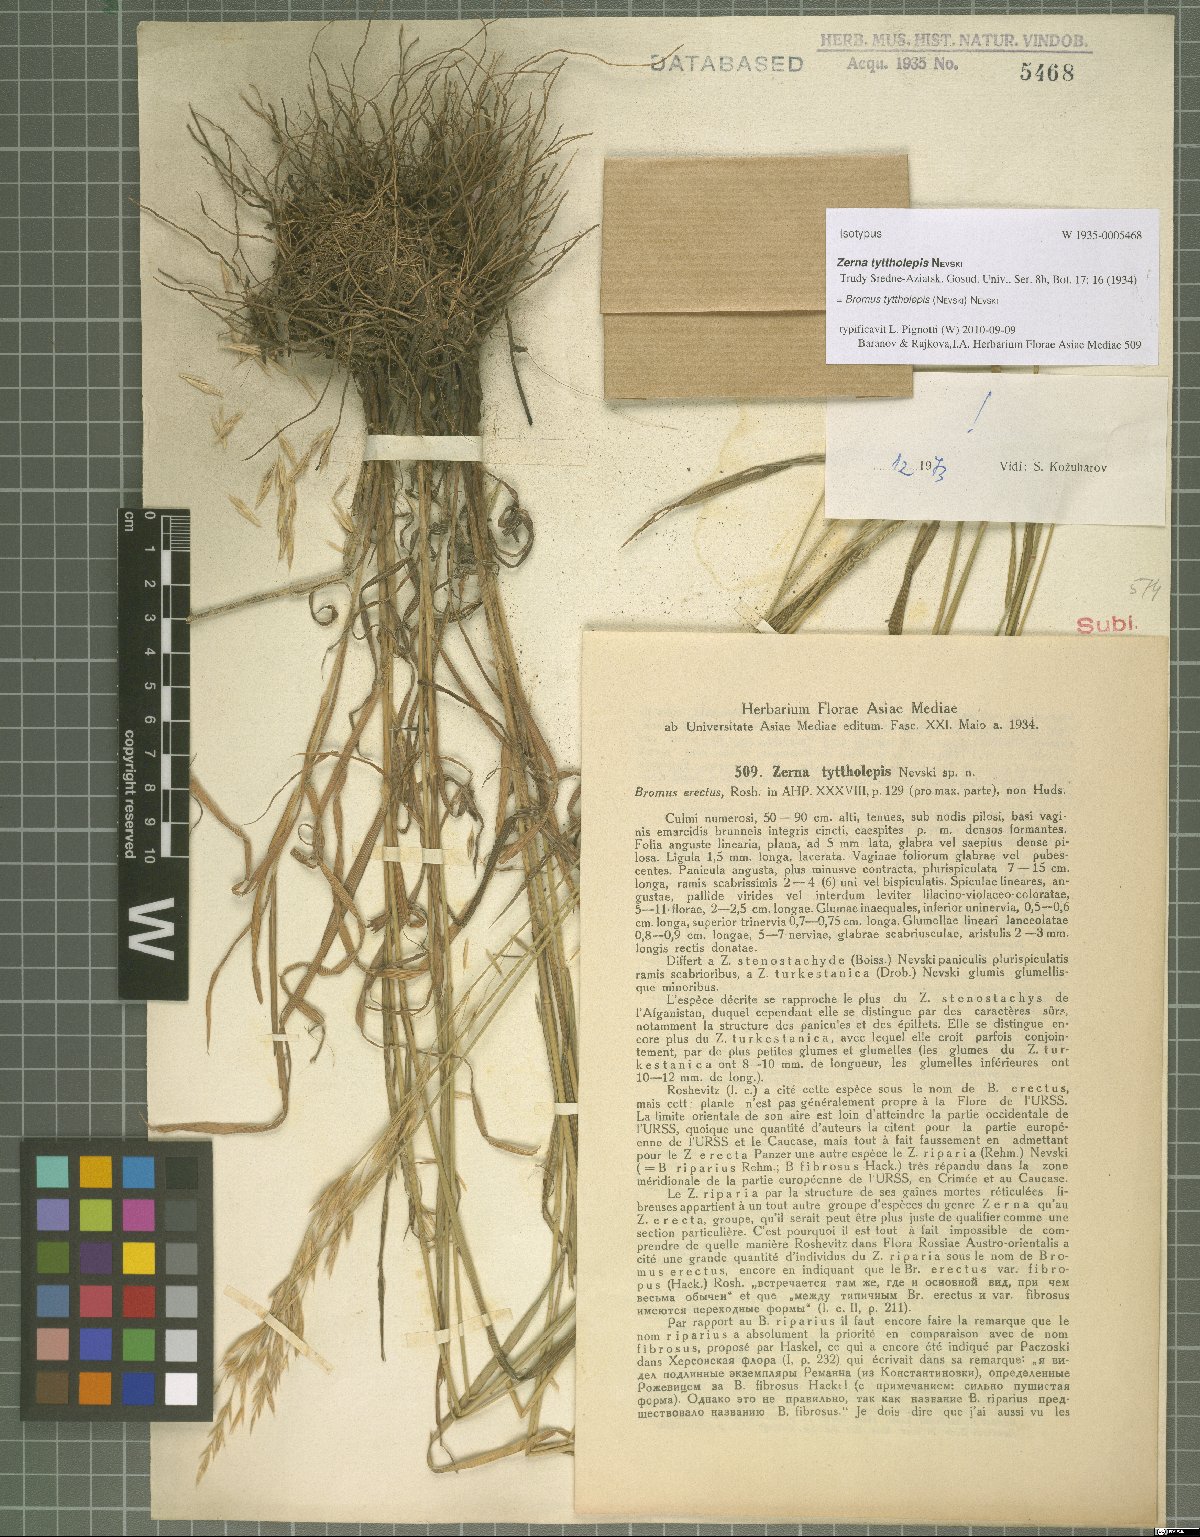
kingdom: Plantae
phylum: Tracheophyta
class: Liliopsida
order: Poales
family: Poaceae
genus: Bromus
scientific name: Bromus tyttholepis
